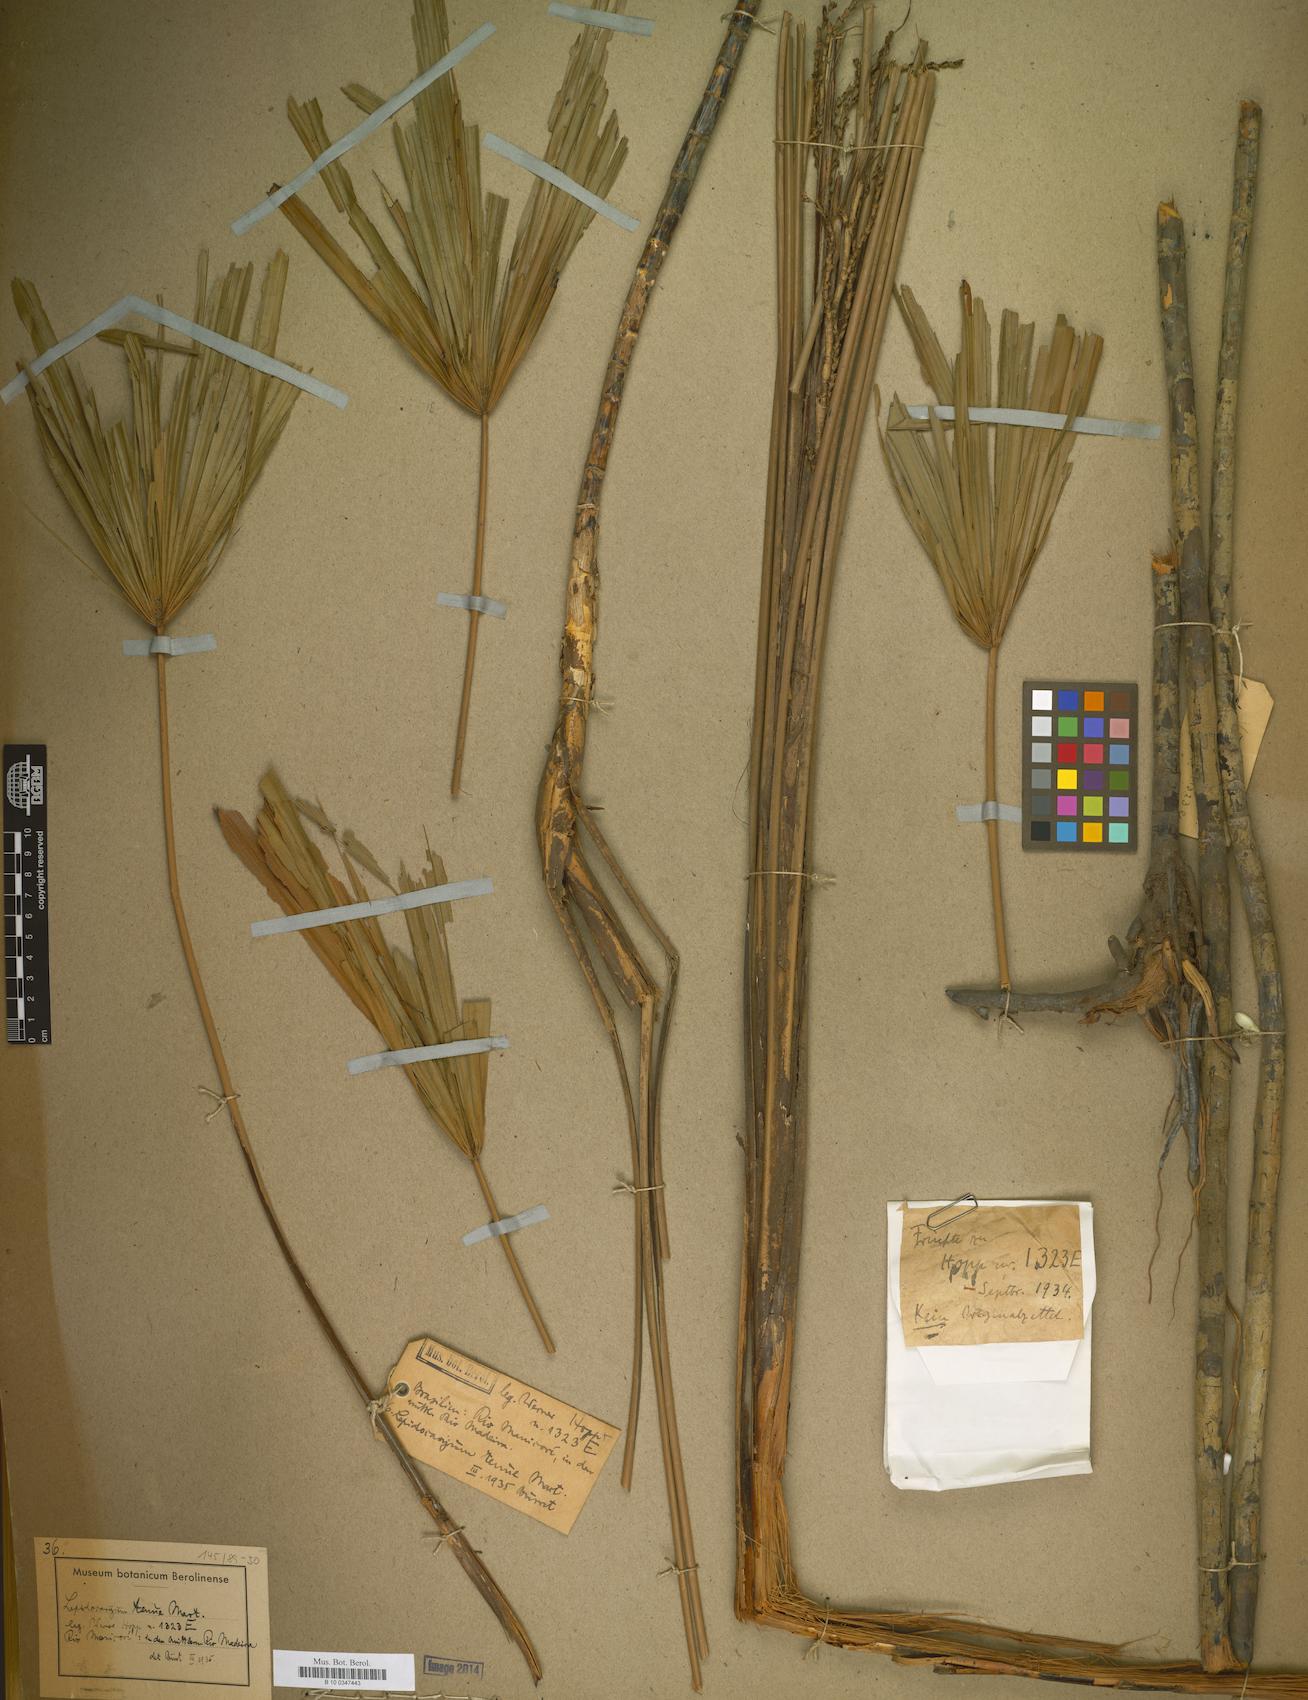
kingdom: Plantae
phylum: Tracheophyta
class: Liliopsida
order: Arecales
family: Arecaceae
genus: Lepidocaryum
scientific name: Lepidocaryum tenue
